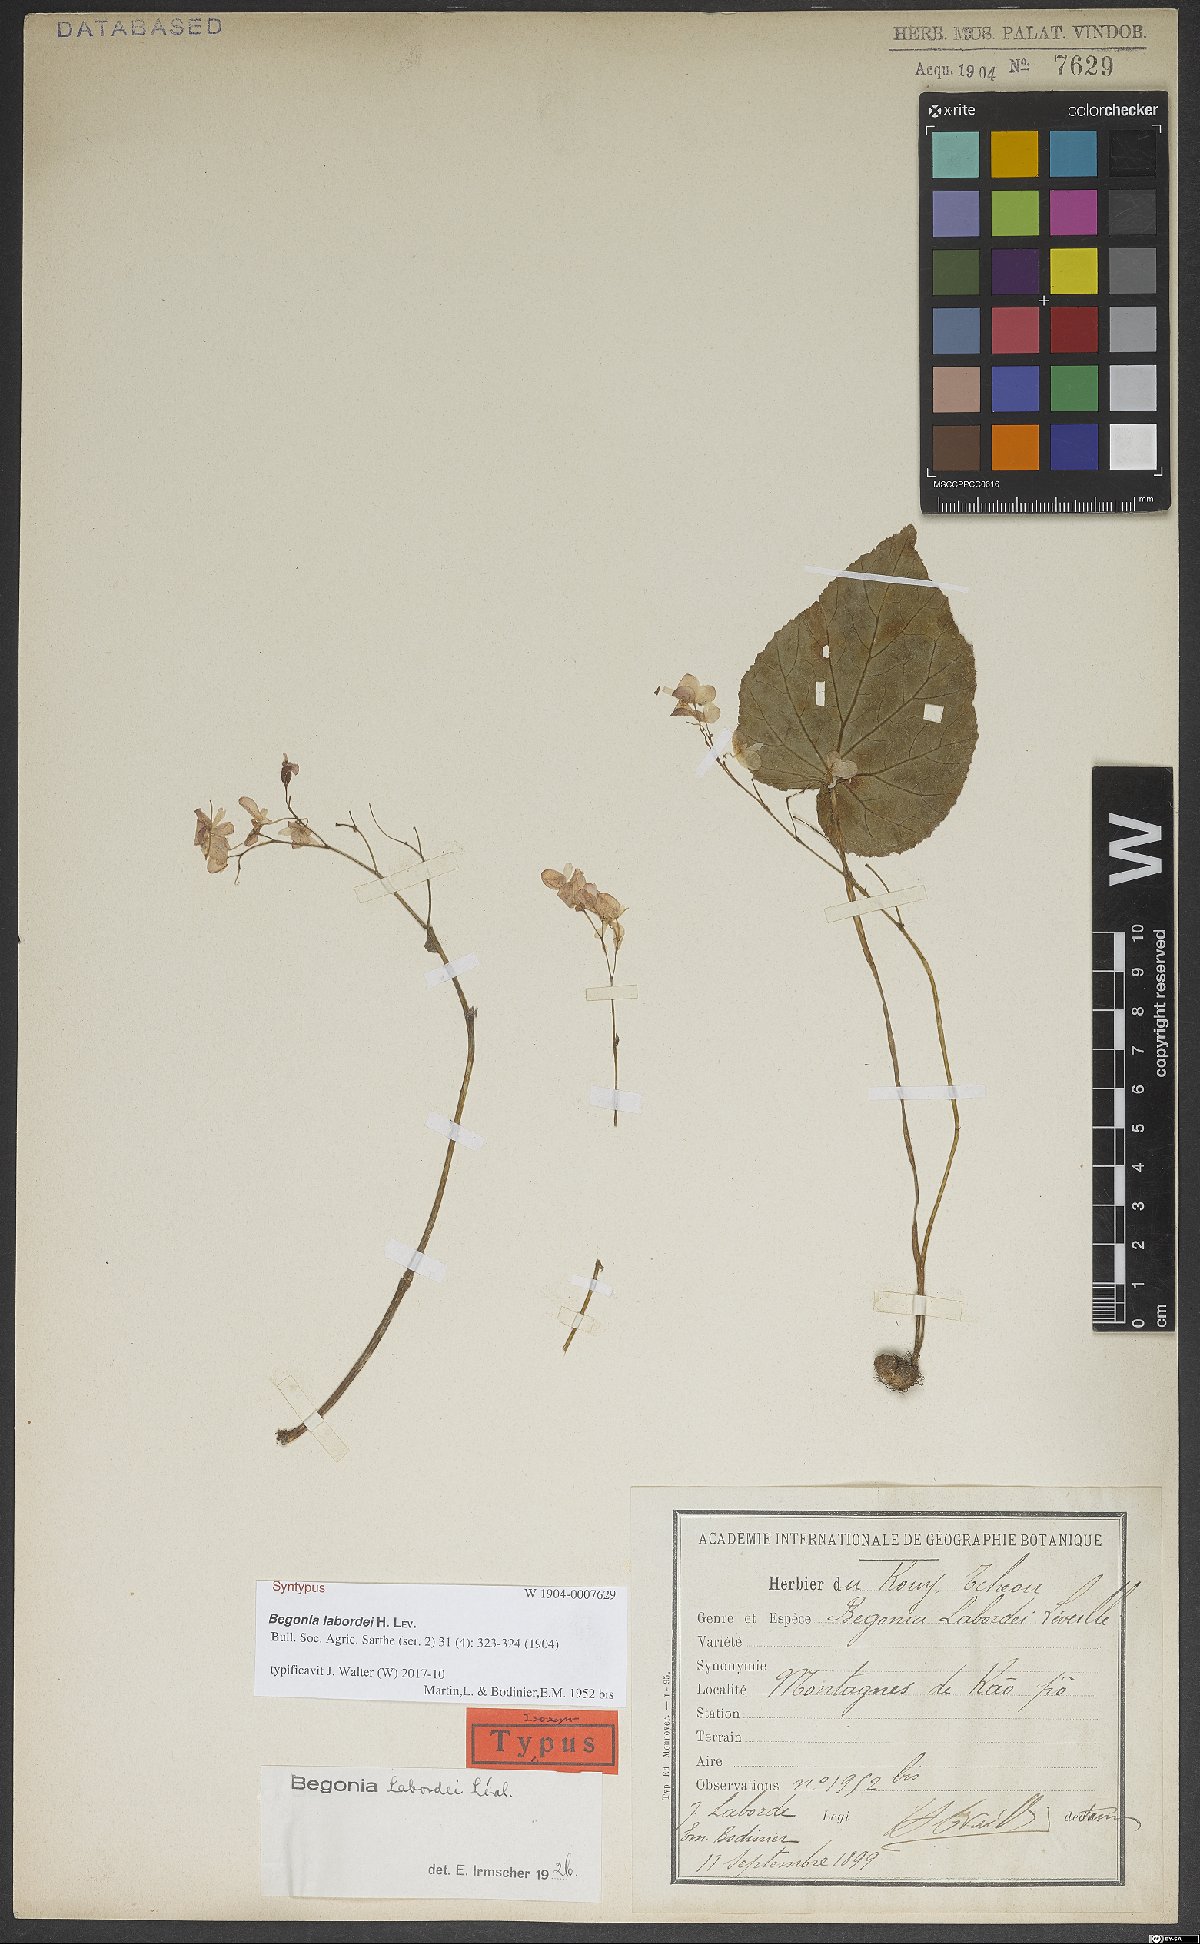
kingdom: Plantae
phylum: Tracheophyta
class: Magnoliopsida
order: Cucurbitales
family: Begoniaceae
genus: Begonia
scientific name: Begonia labordei
